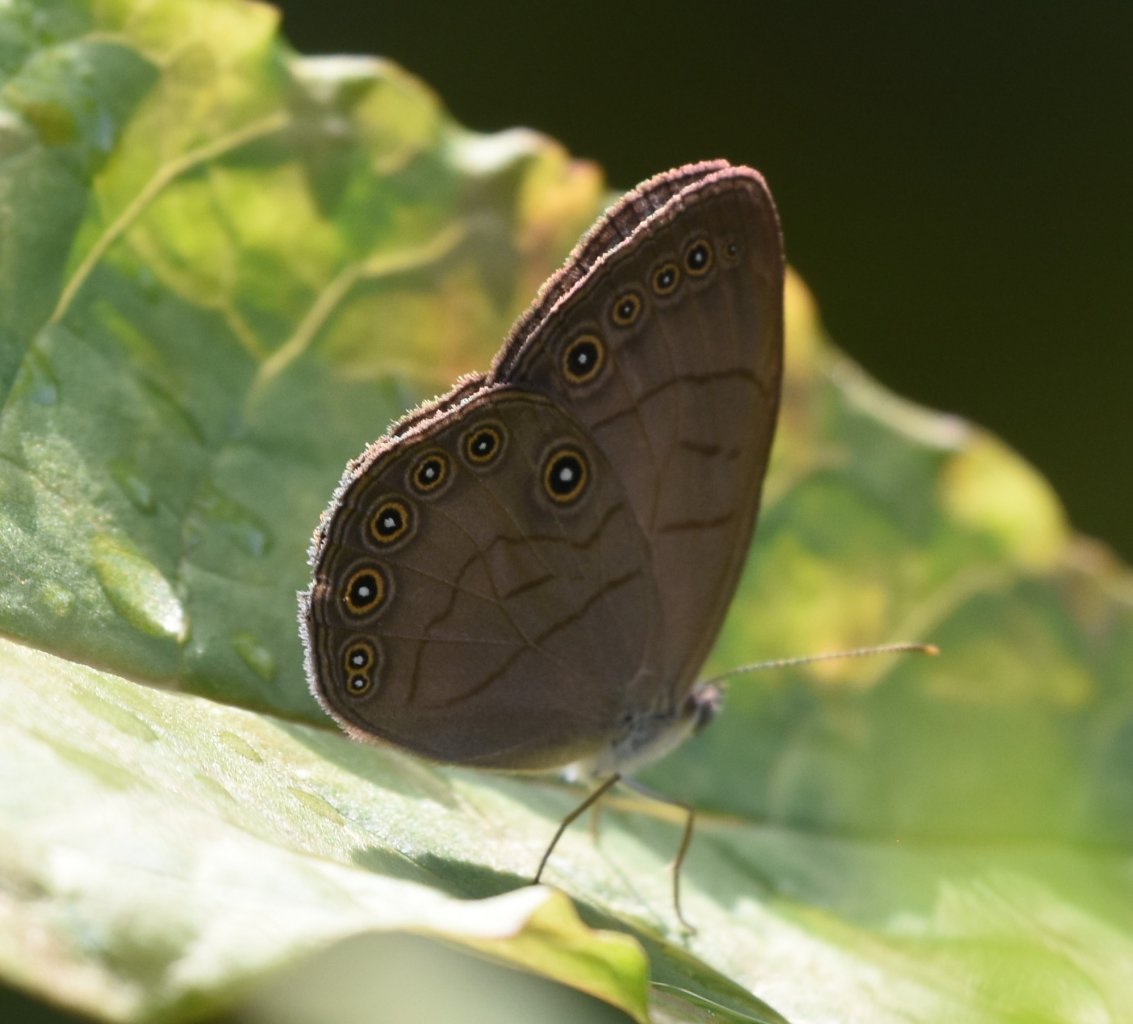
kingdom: Animalia
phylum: Arthropoda
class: Insecta
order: Lepidoptera
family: Nymphalidae
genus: Lethe
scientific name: Lethe eurydice
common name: Appalachian Eyed Brown
